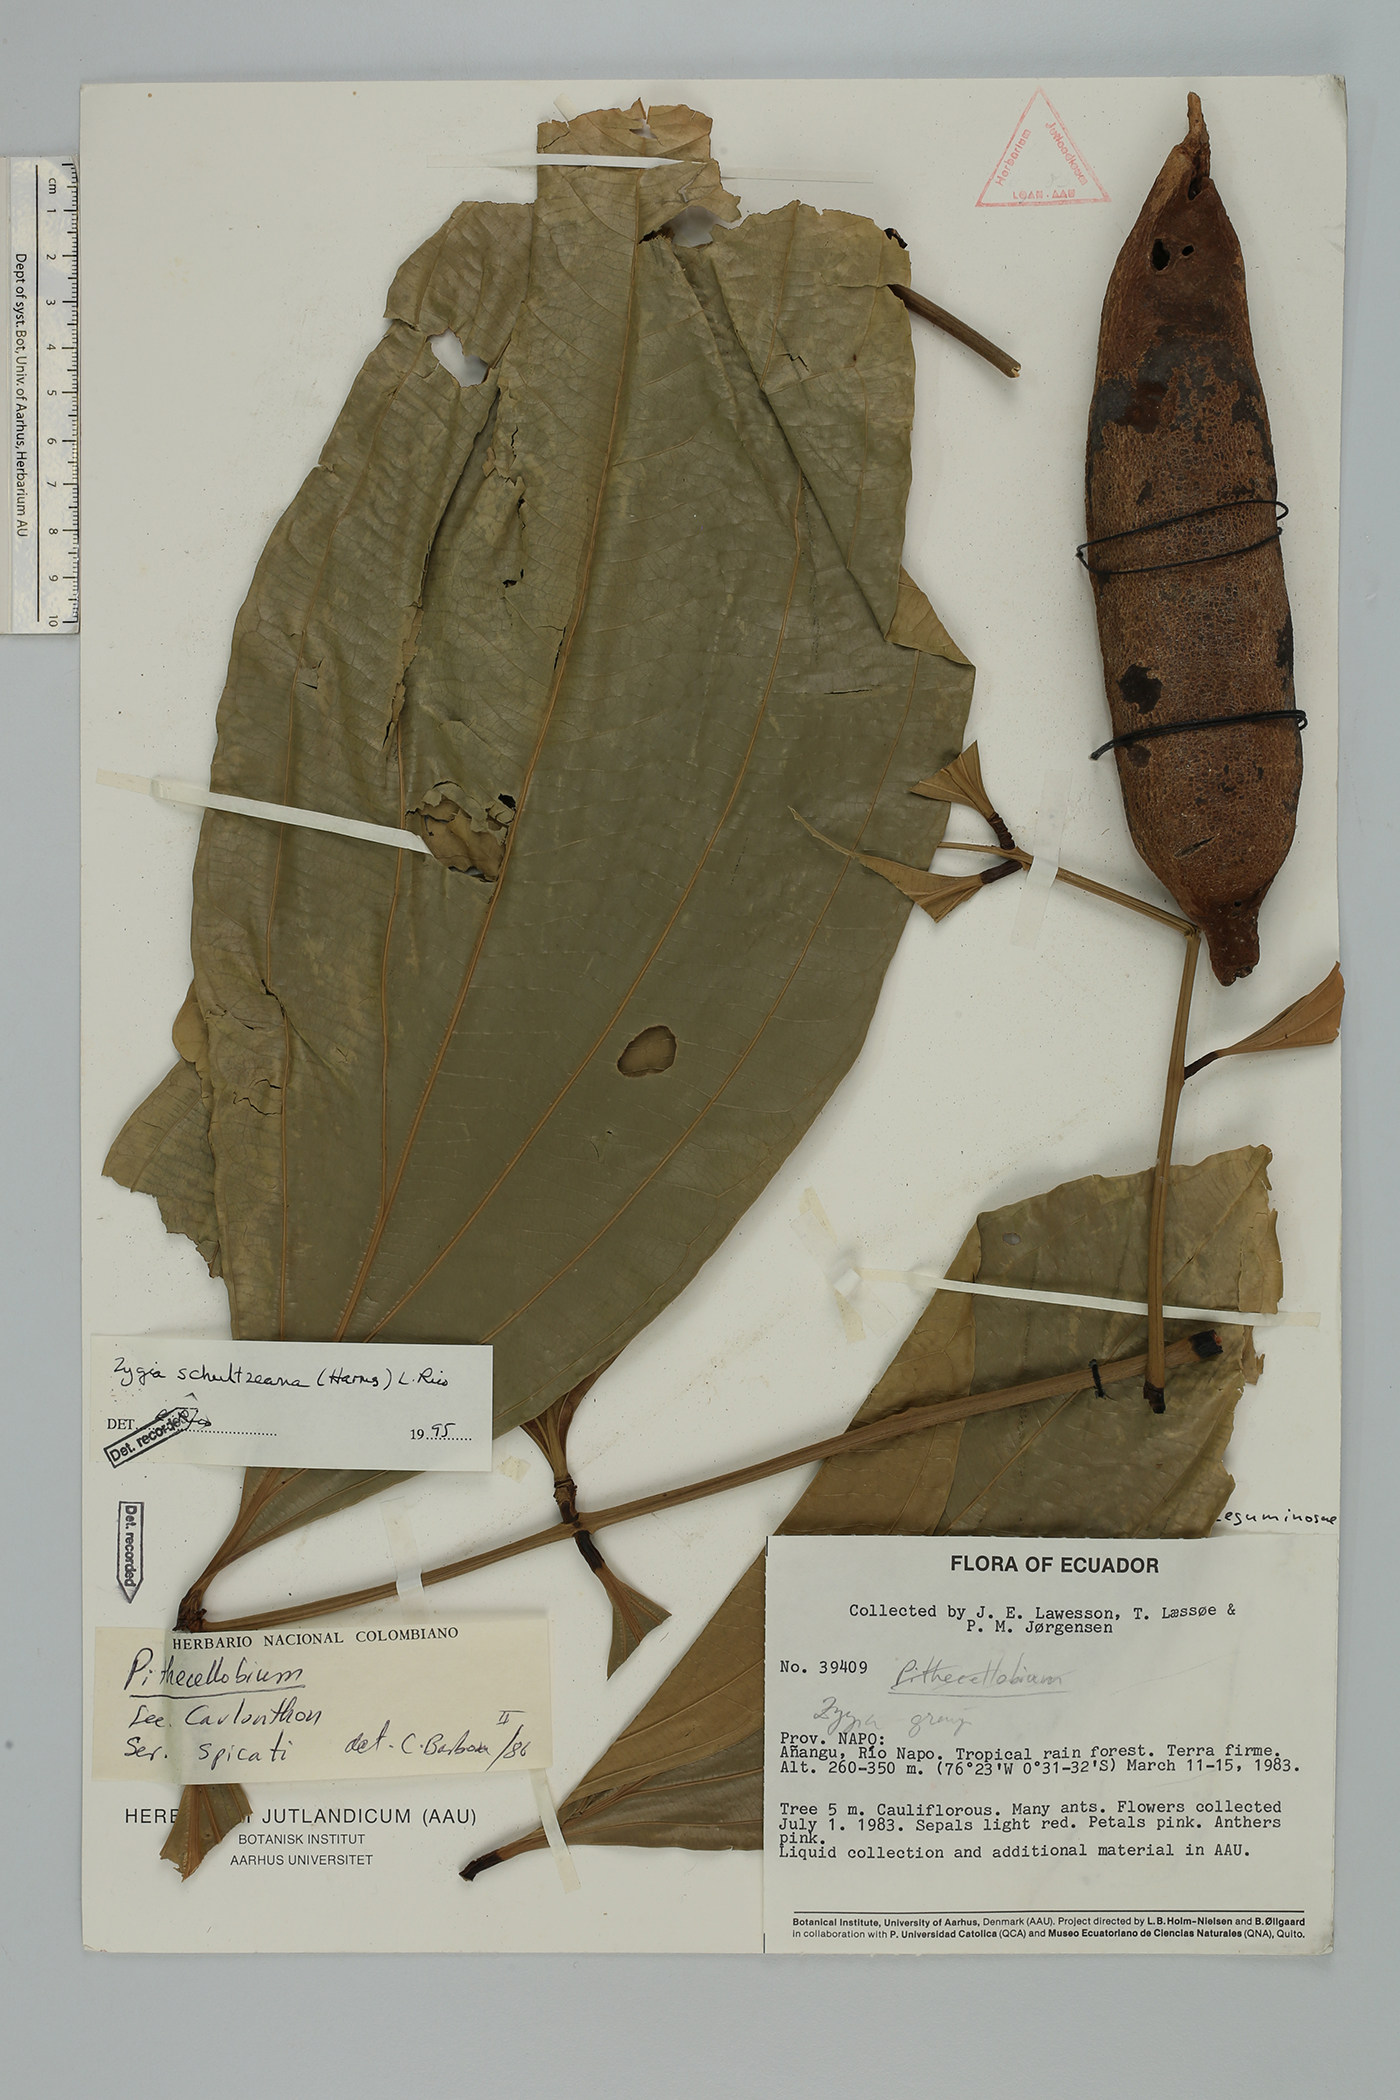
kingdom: Plantae
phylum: Tracheophyta
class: Magnoliopsida
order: Fabales
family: Fabaceae
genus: Zygia
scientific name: Zygia heteroneura
